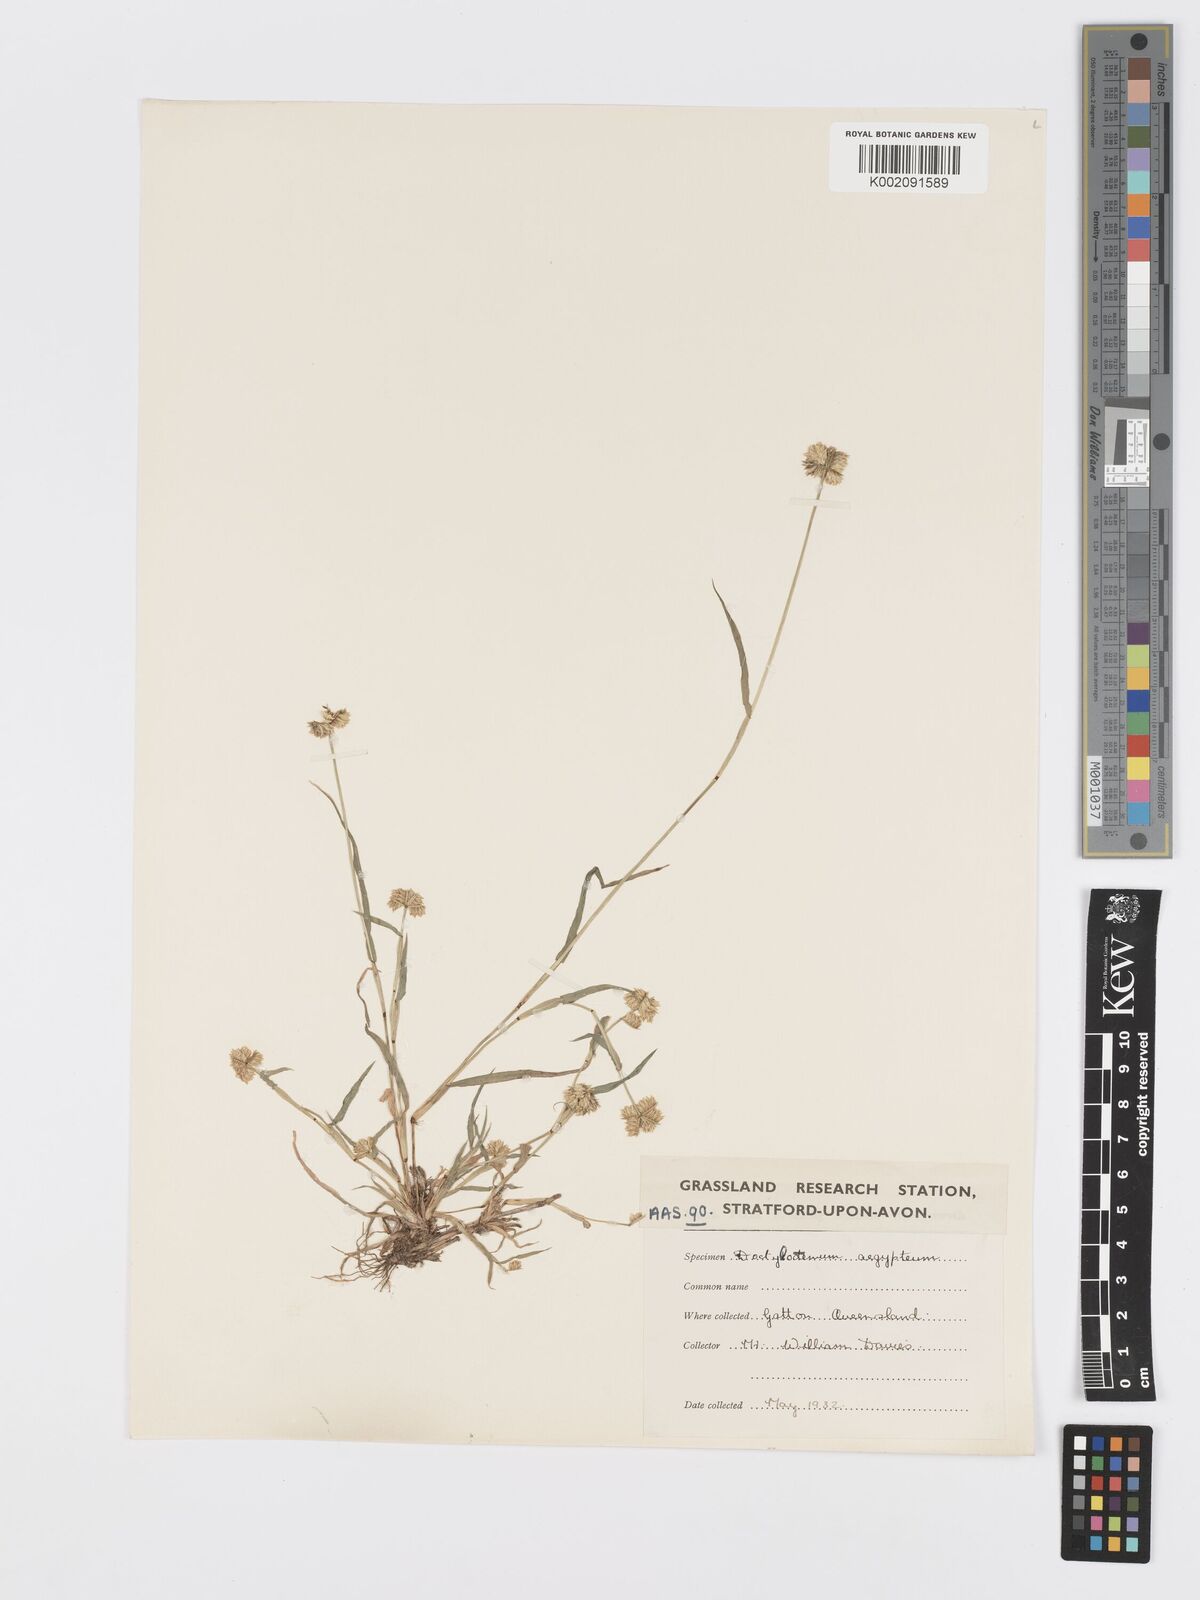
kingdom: Plantae
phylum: Tracheophyta
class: Liliopsida
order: Poales
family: Poaceae
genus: Dactyloctenium
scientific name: Dactyloctenium radulans
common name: Button-grass
